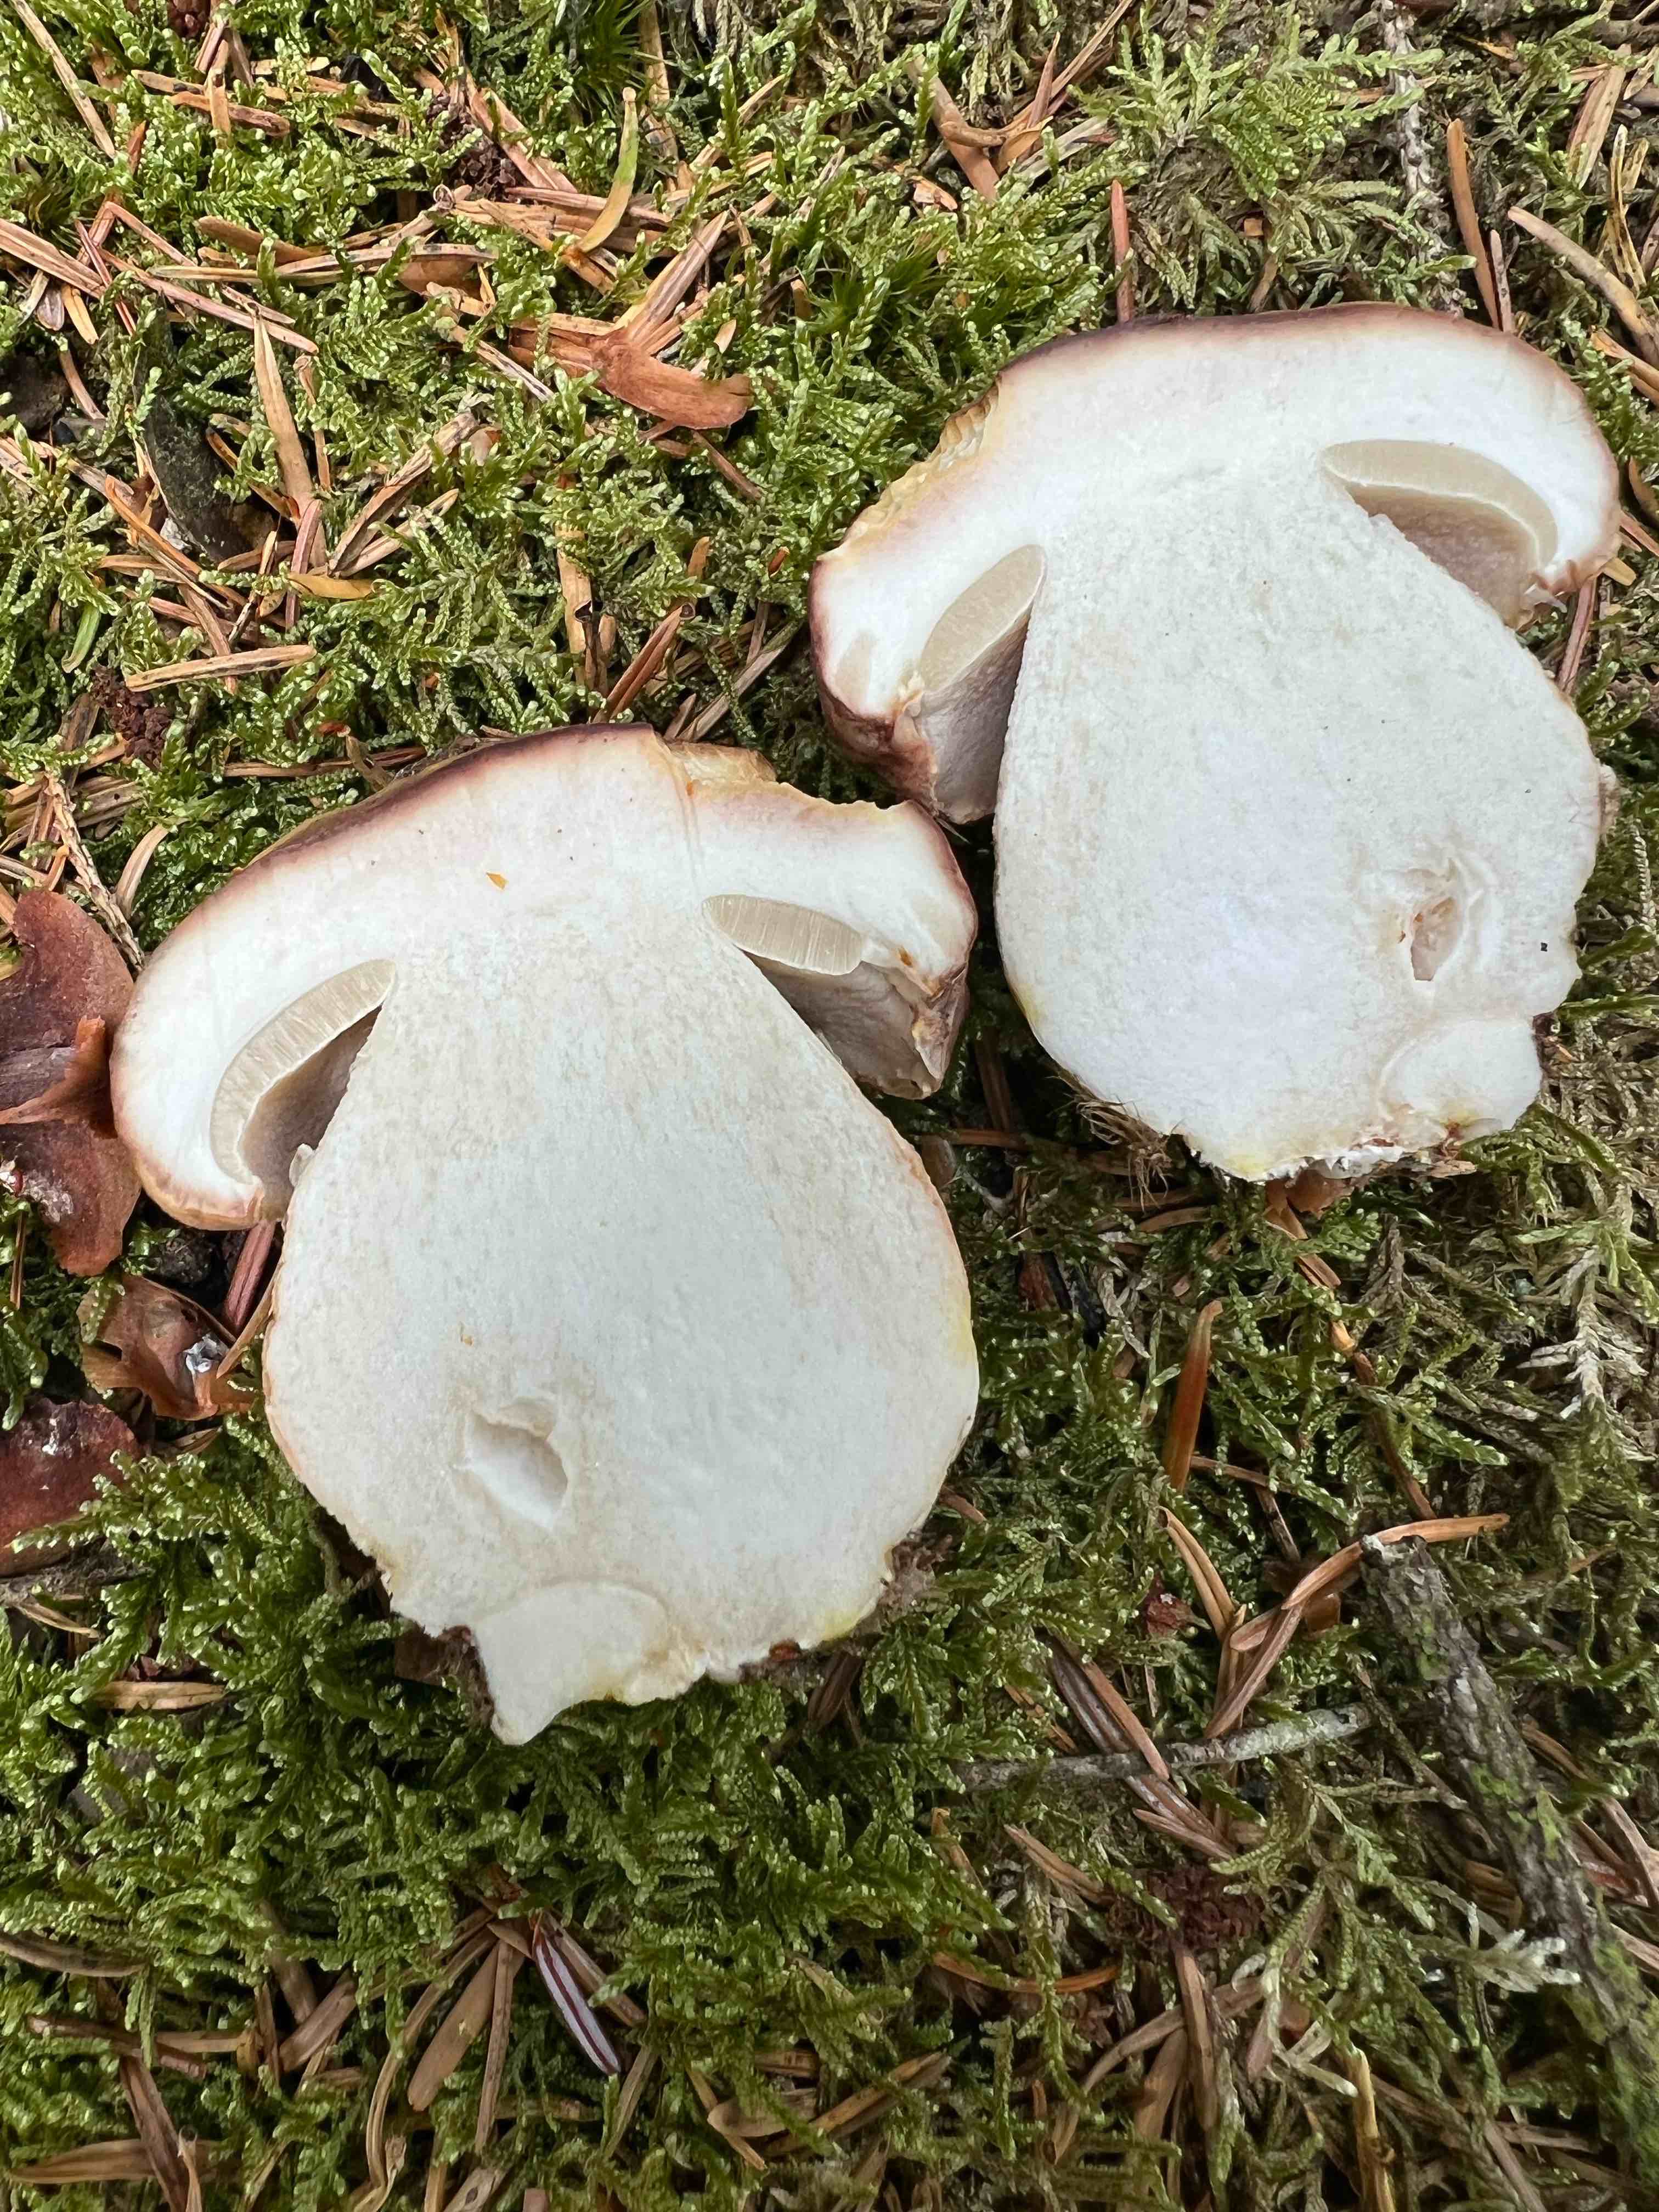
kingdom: Fungi
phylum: Basidiomycota
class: Agaricomycetes
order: Boletales
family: Boletaceae
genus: Boletus
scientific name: Boletus pinophilus
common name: rødbrun rørhat
